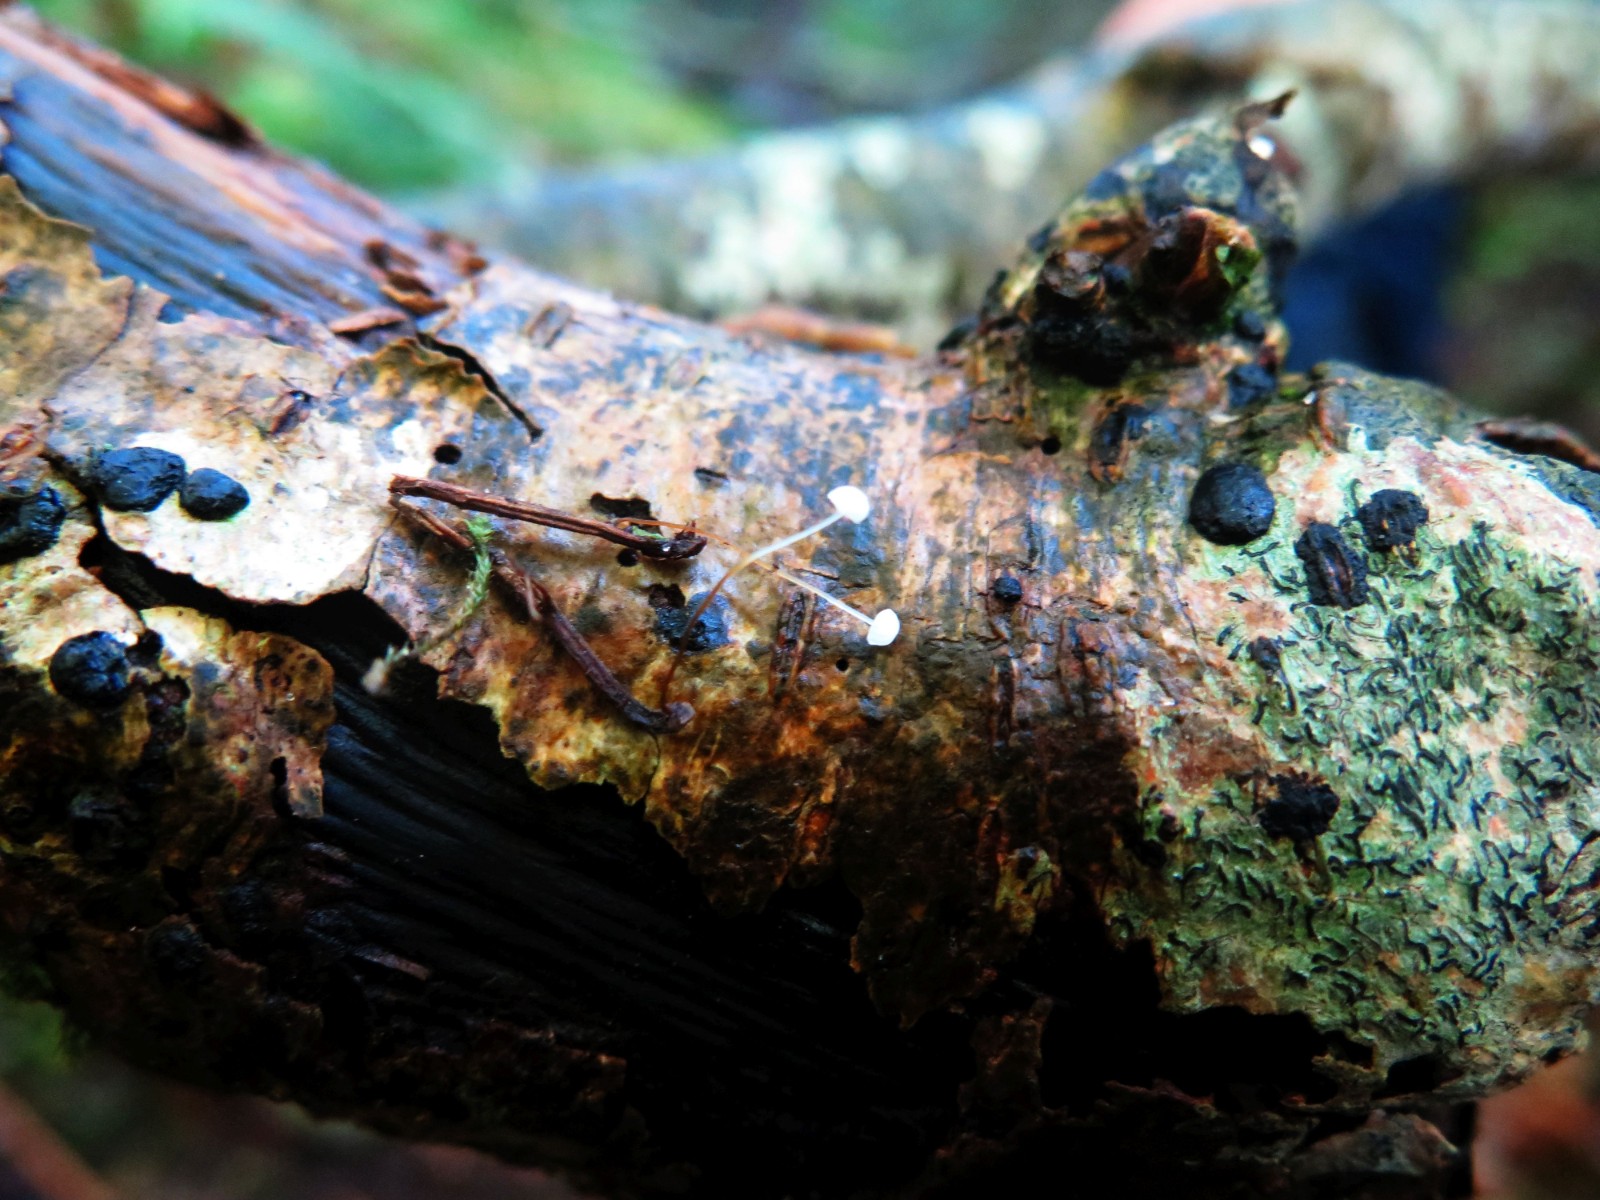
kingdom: Fungi
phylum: Basidiomycota
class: Agaricomycetes
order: Agaricales
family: Physalacriaceae
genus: Rhizomarasmius
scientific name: Rhizomarasmius setosus
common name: bøgeblads-bruskhat
